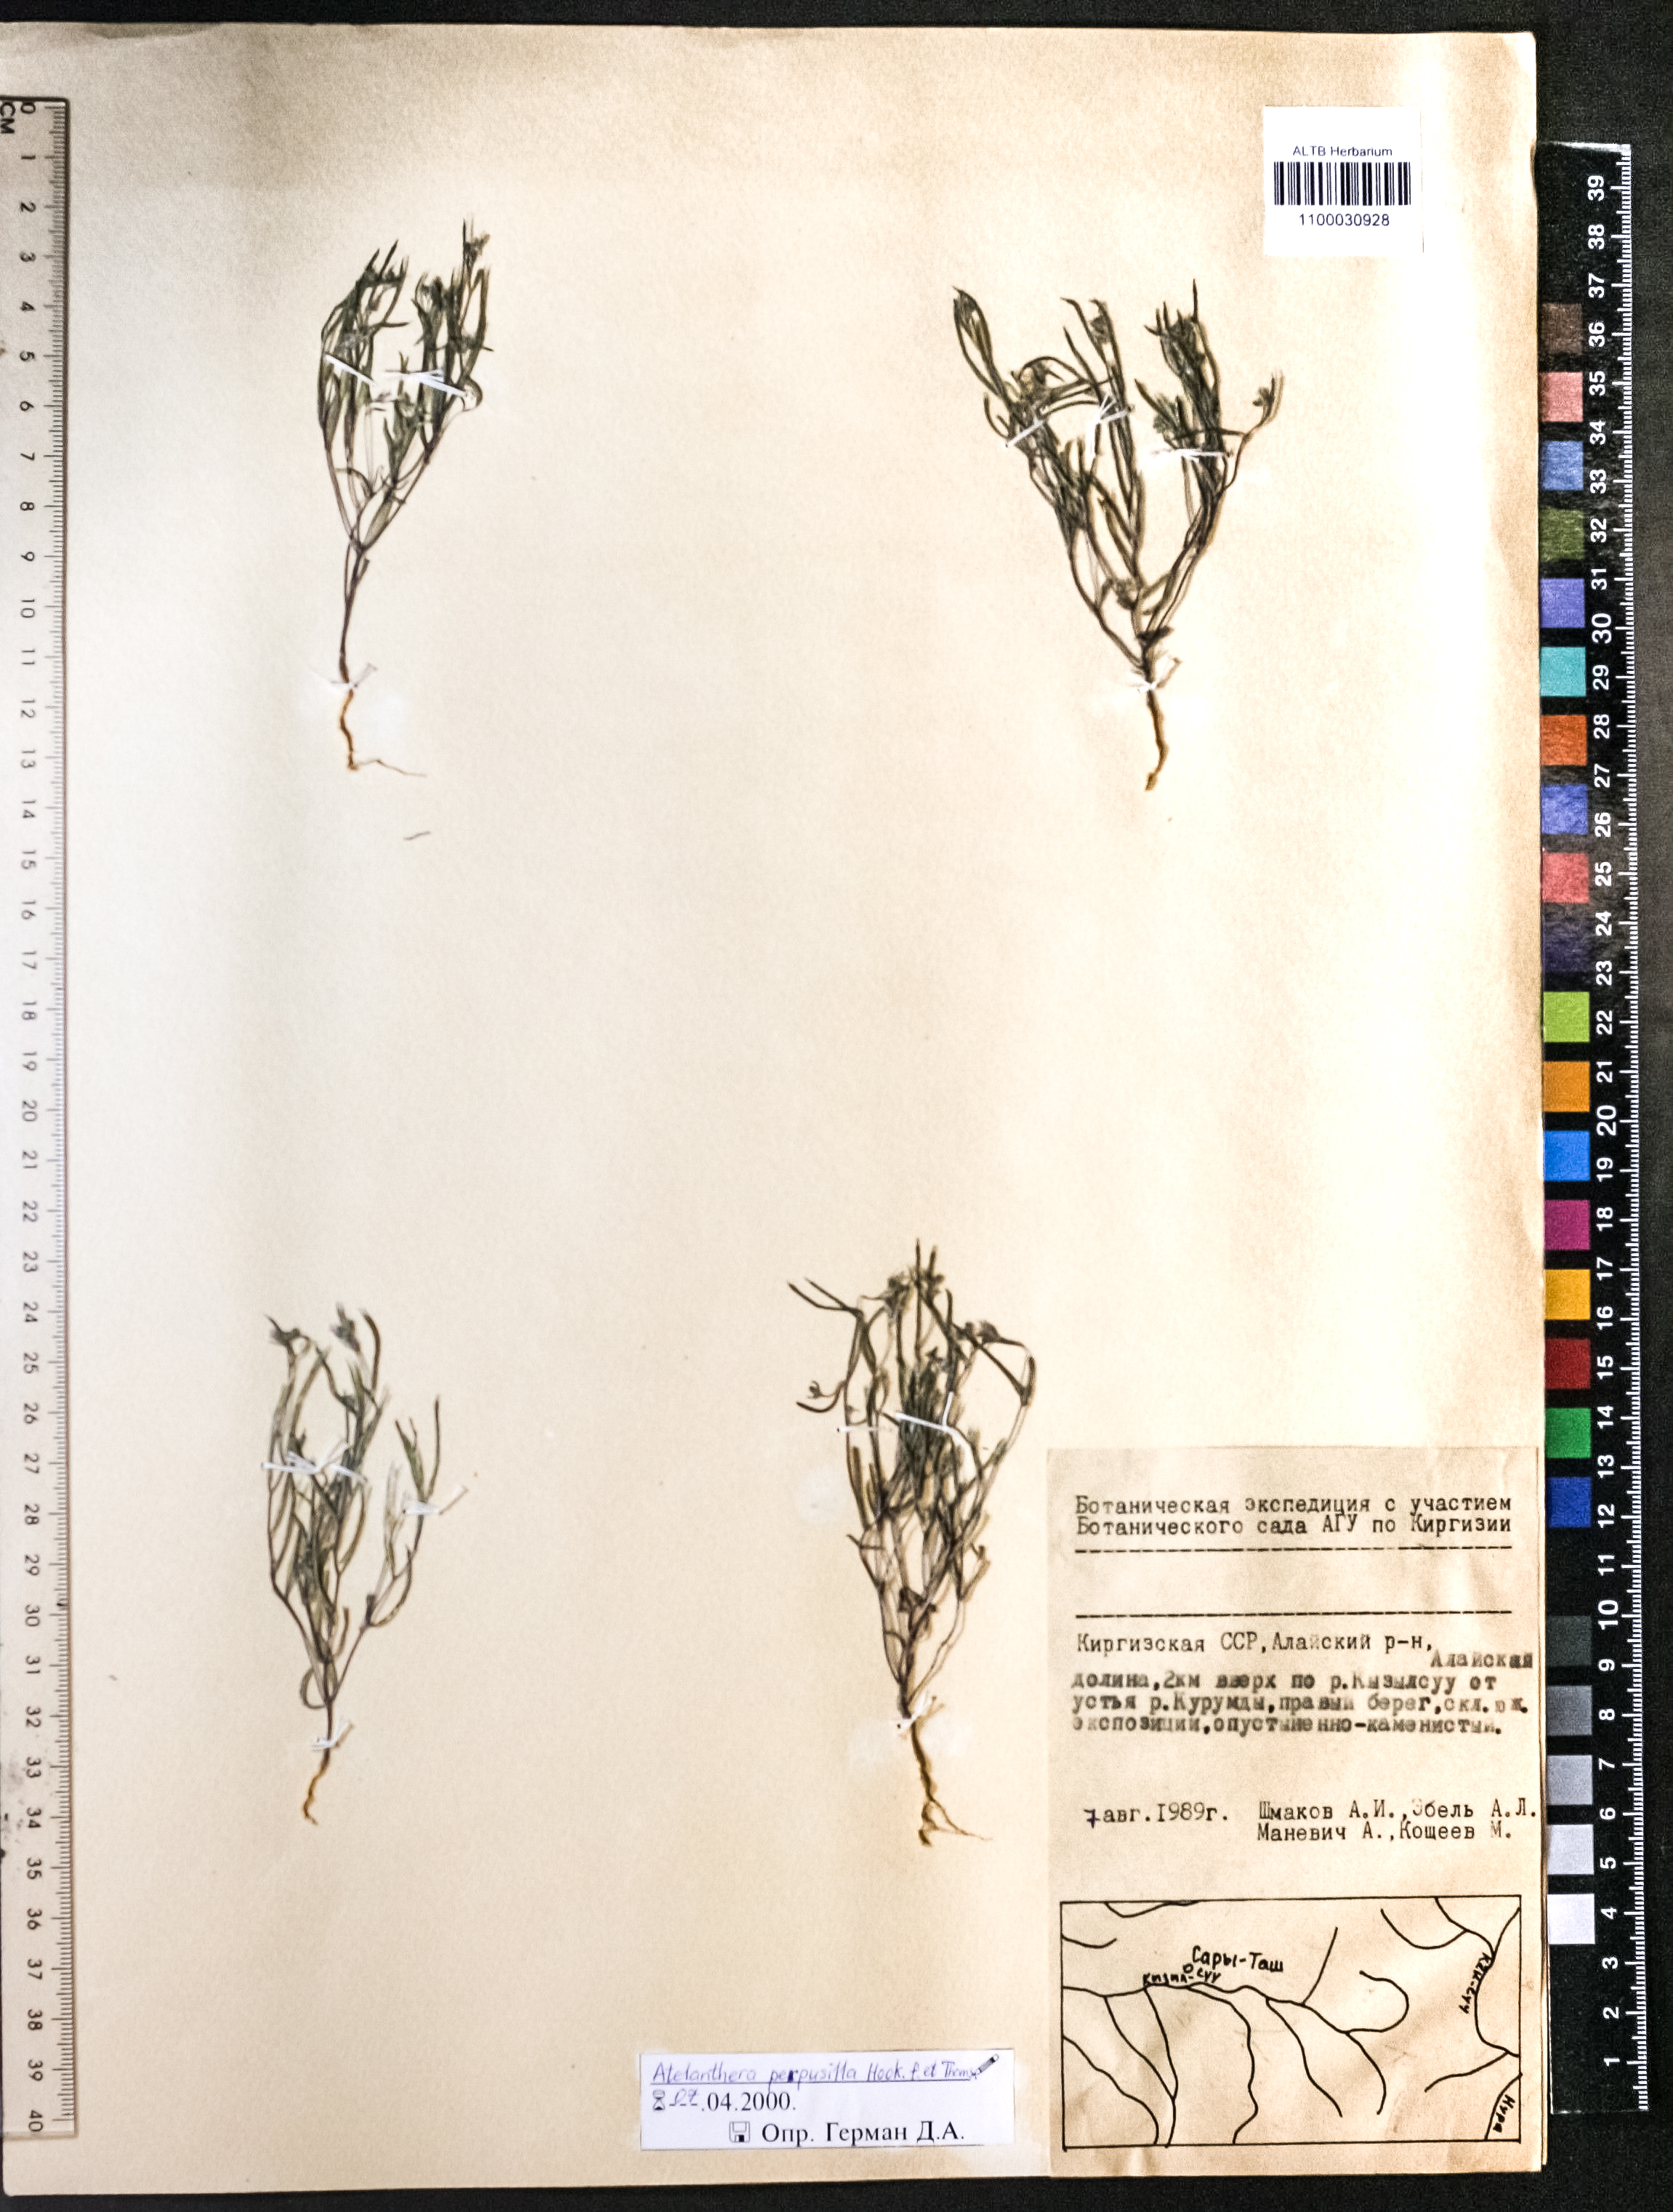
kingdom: Plantae
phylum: Tracheophyta
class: Magnoliopsida
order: Brassicales
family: Brassicaceae
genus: Atelanthera
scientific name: Atelanthera perpusilla
